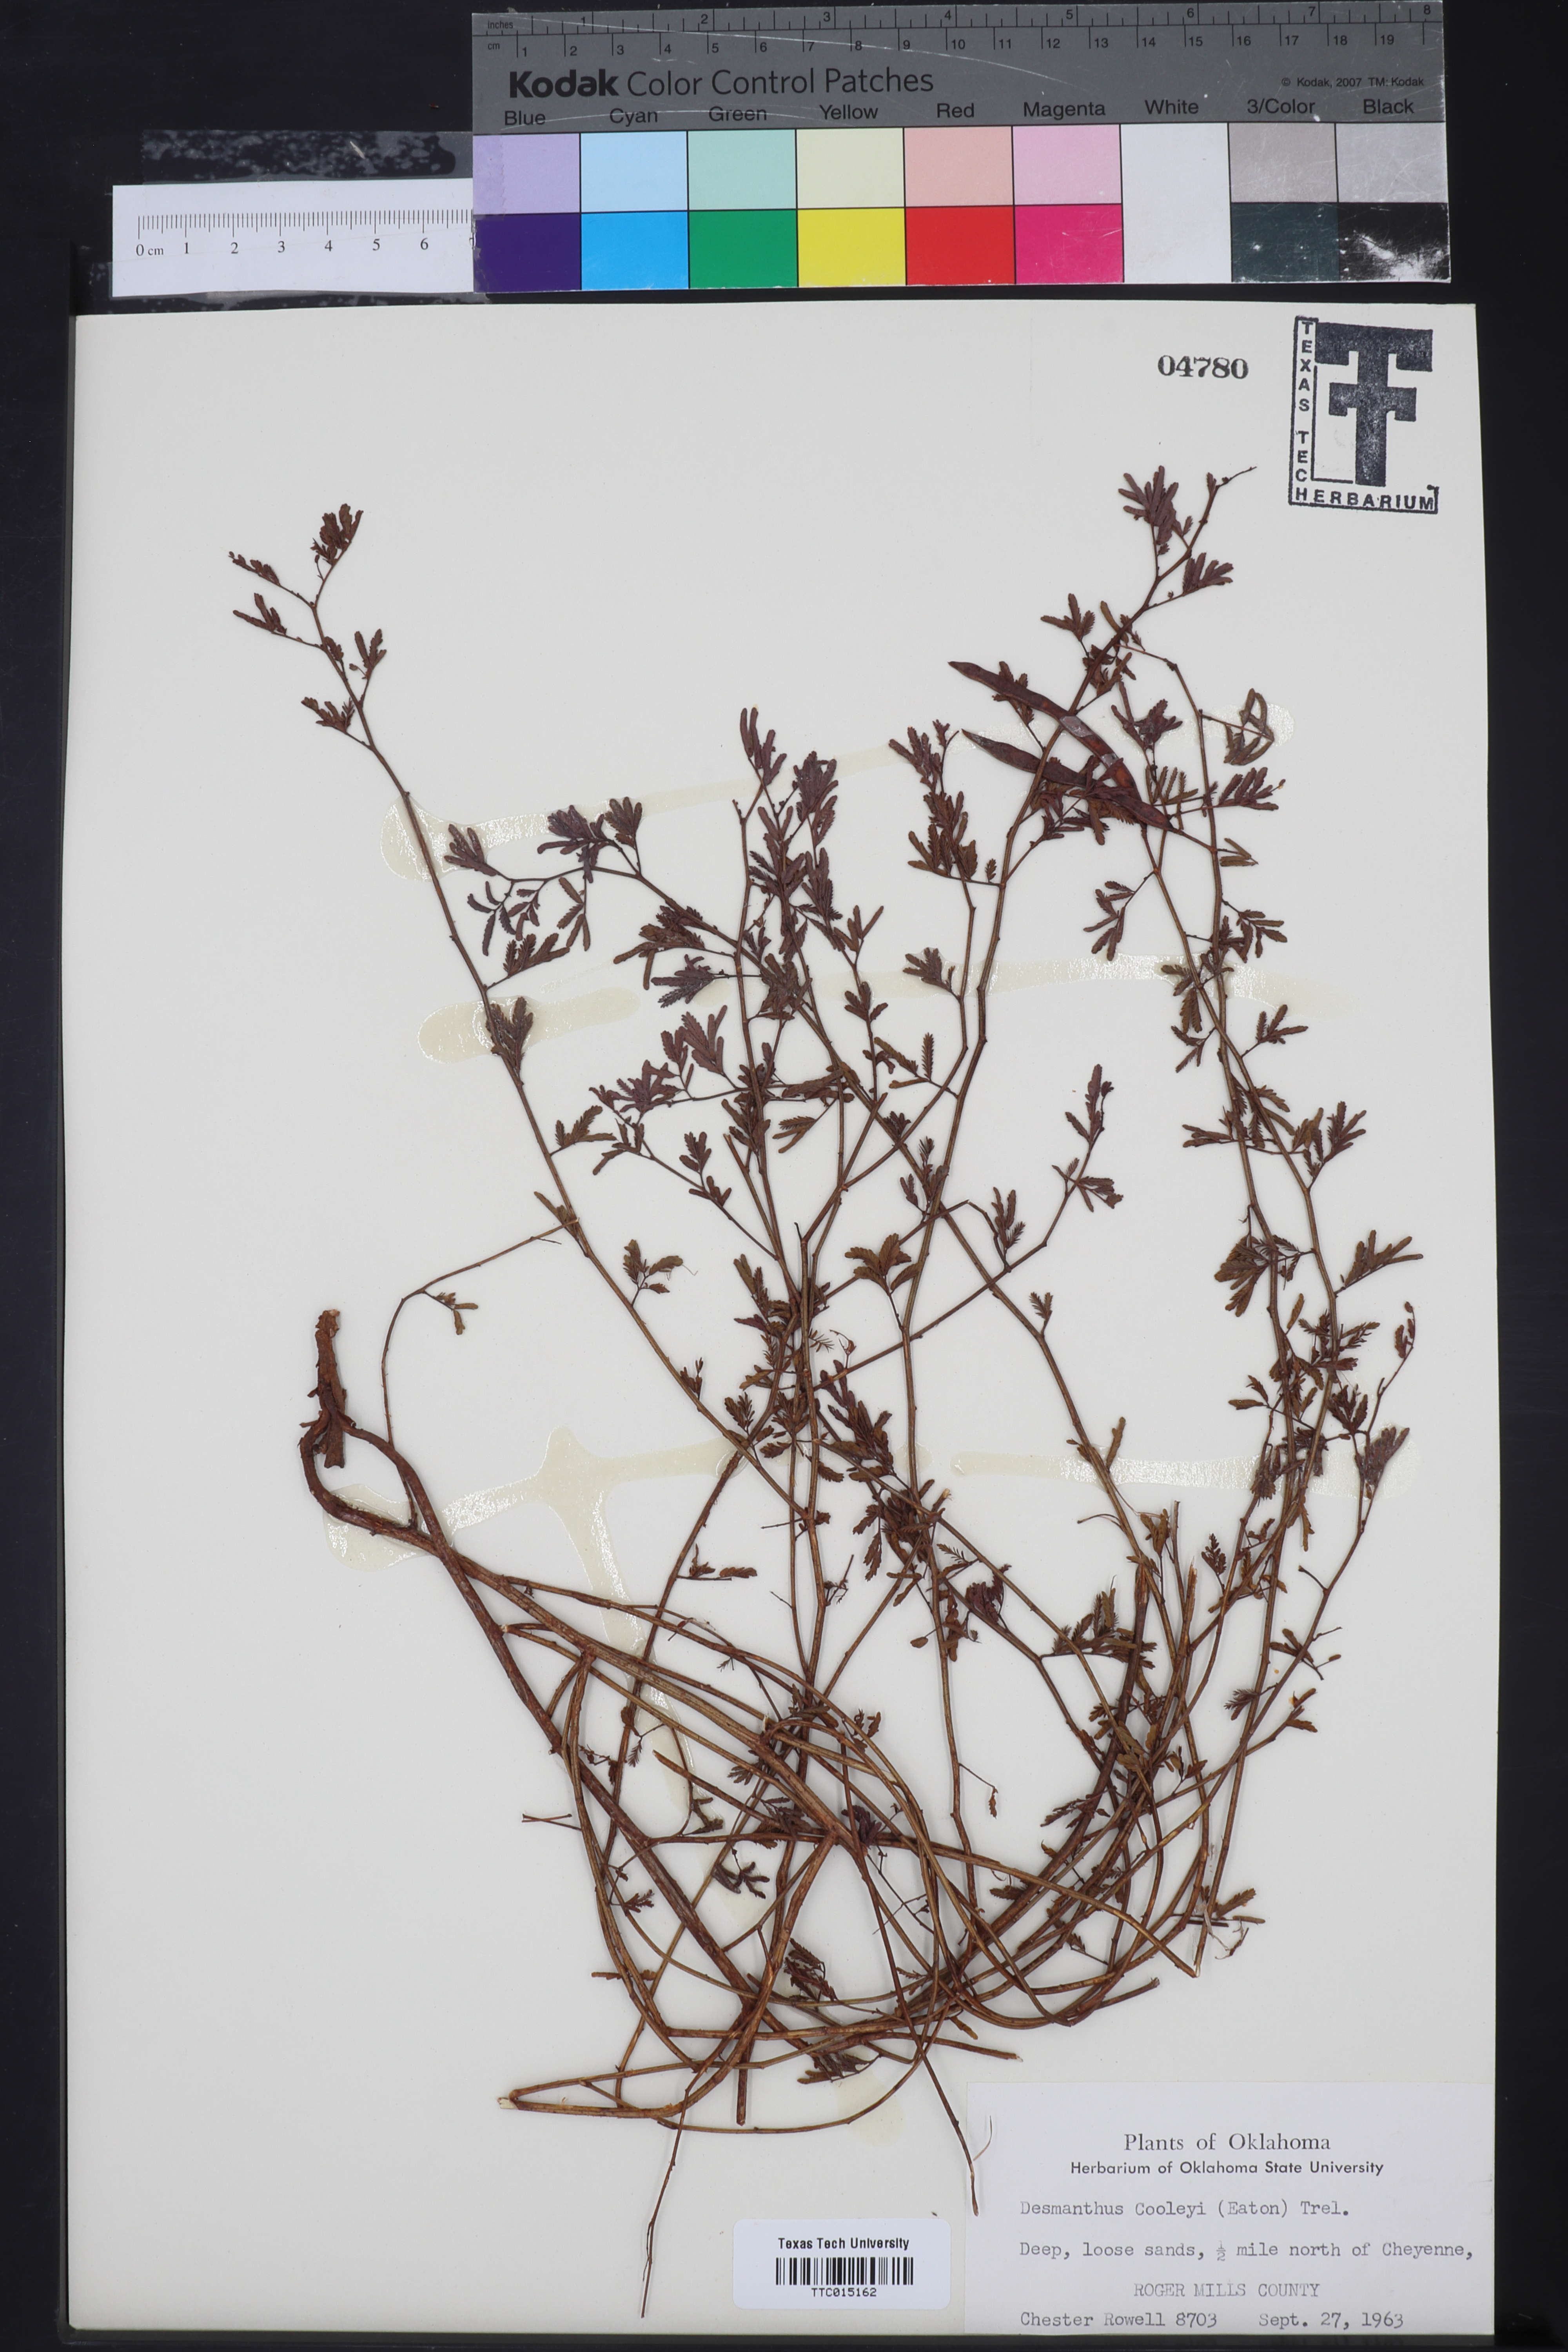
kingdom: Plantae
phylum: Tracheophyta
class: Magnoliopsida
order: Fabales
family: Fabaceae
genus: Desmanthus
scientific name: Desmanthus cooleyi
